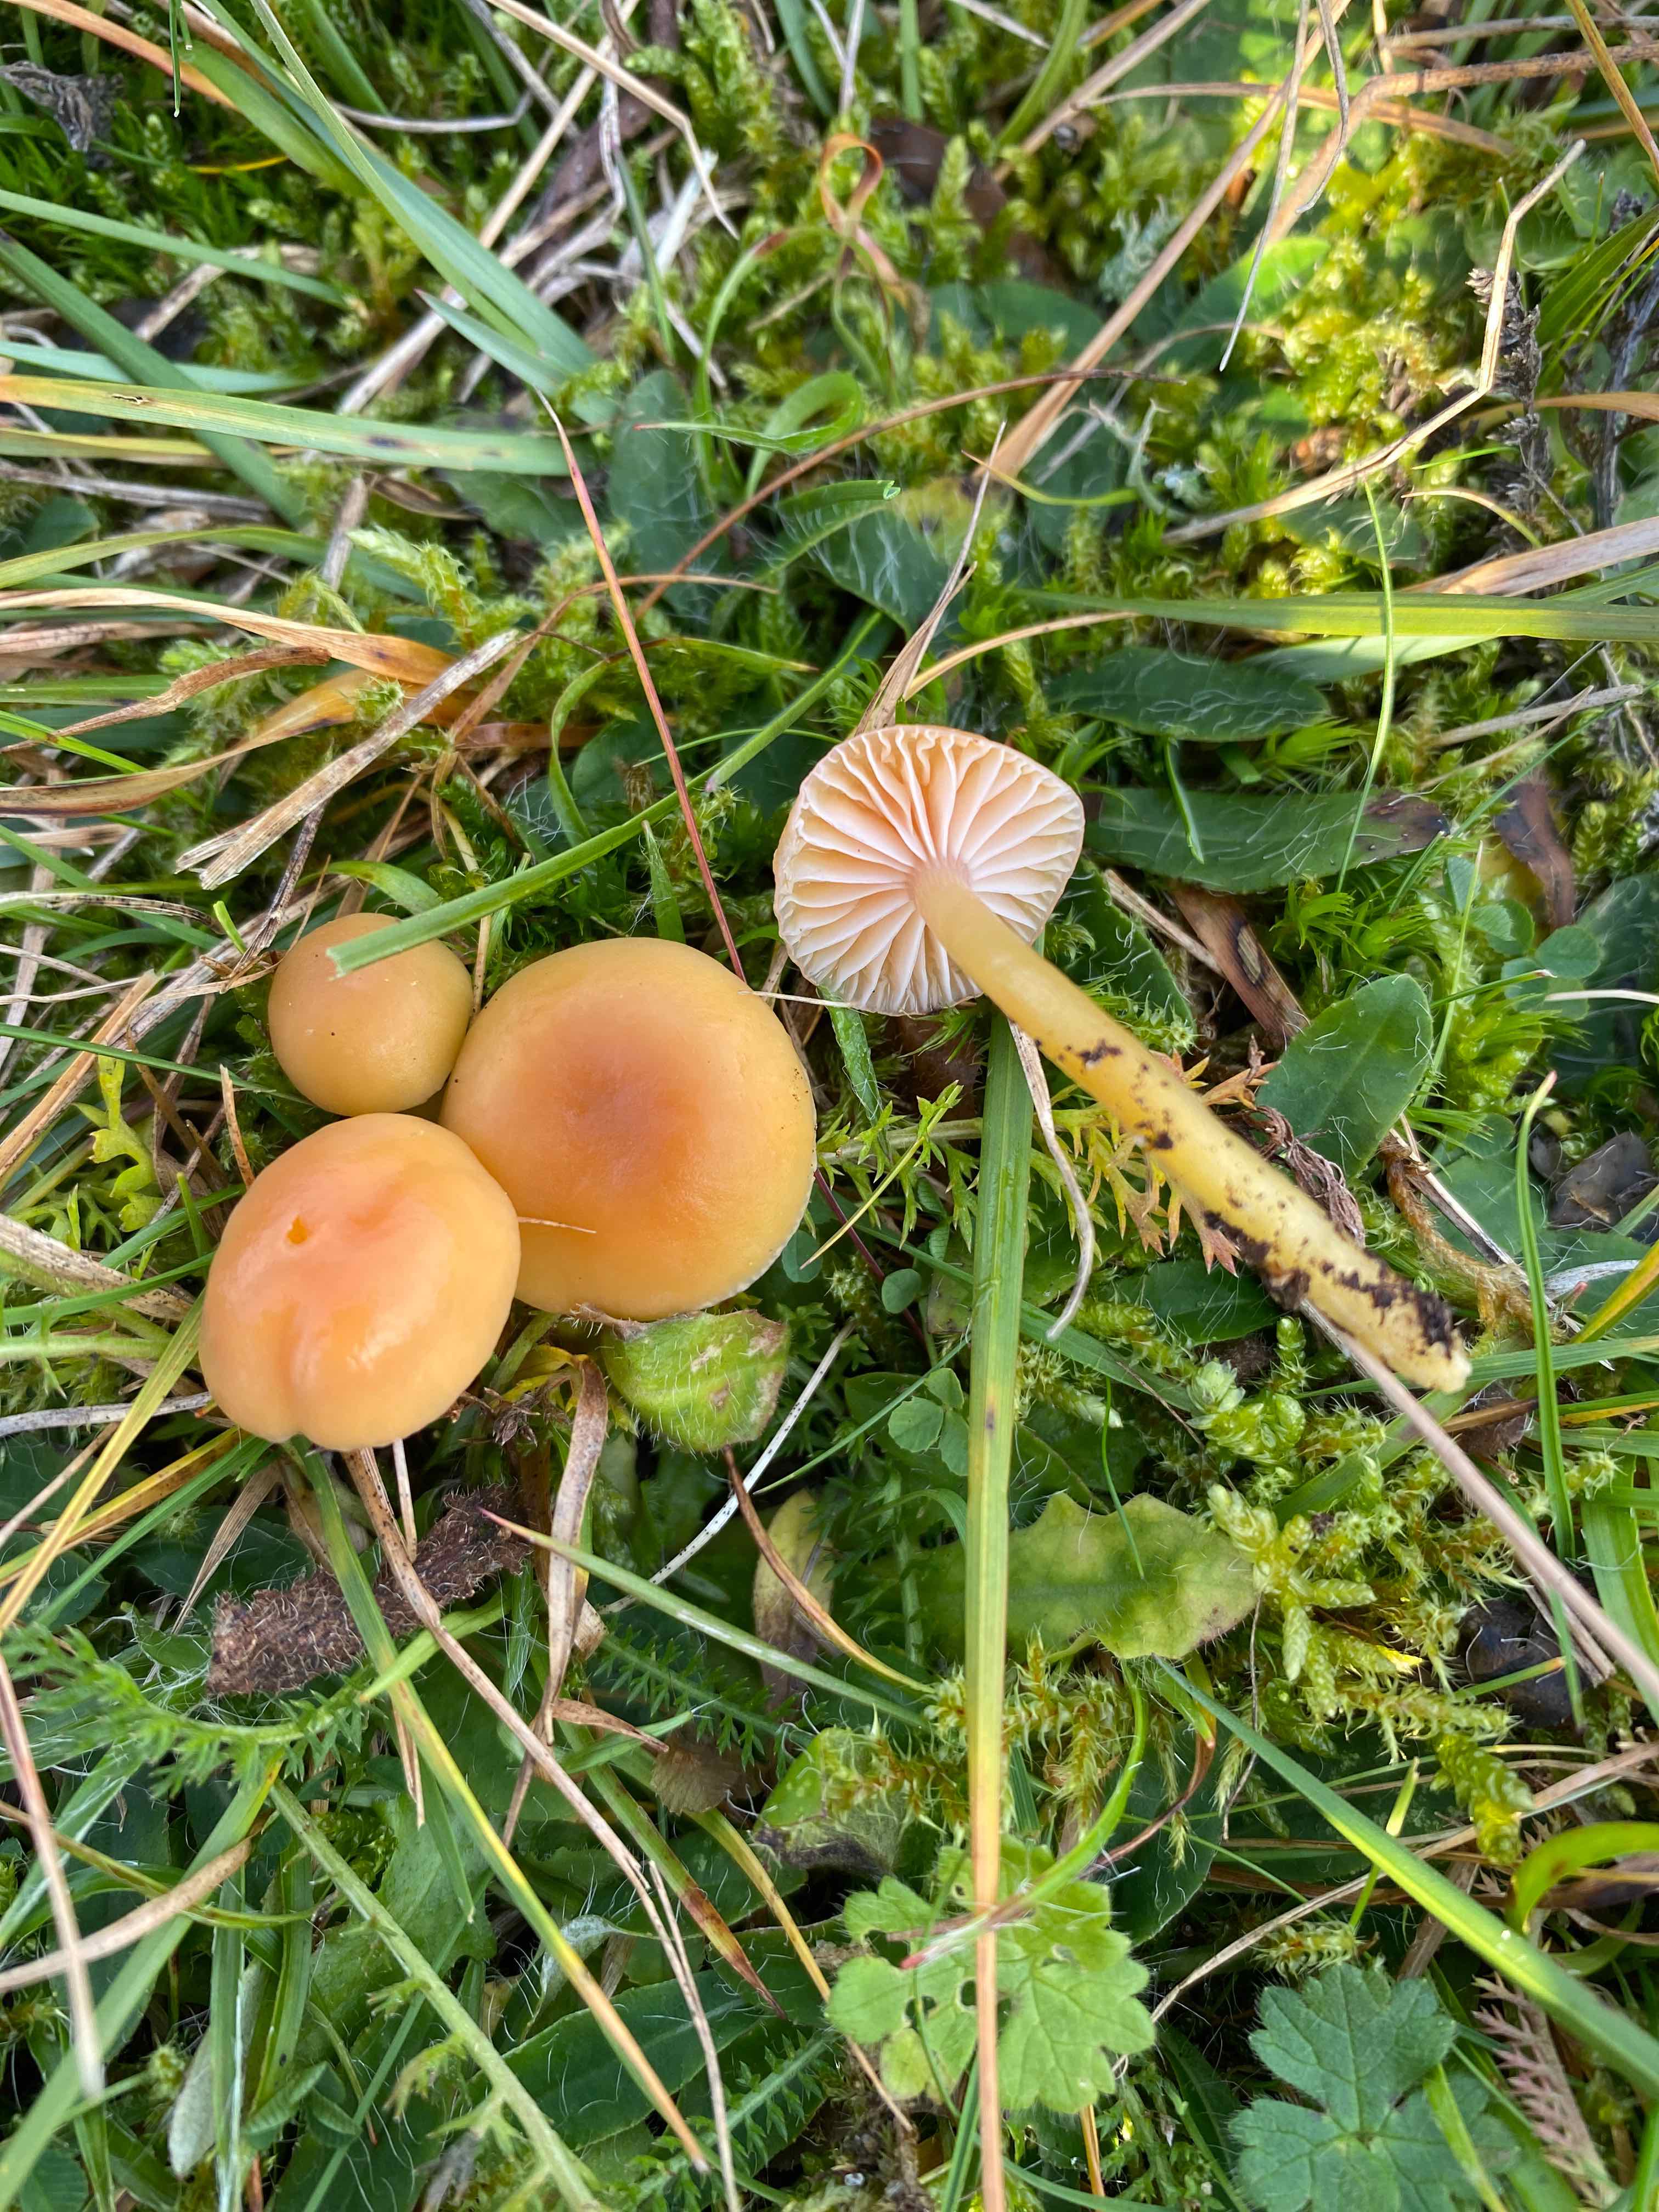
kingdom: Fungi
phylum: Basidiomycota
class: Agaricomycetes
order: Agaricales
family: Hygrophoraceae
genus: Gliophorus
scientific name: Gliophorus laetus
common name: brusk-vokshat
